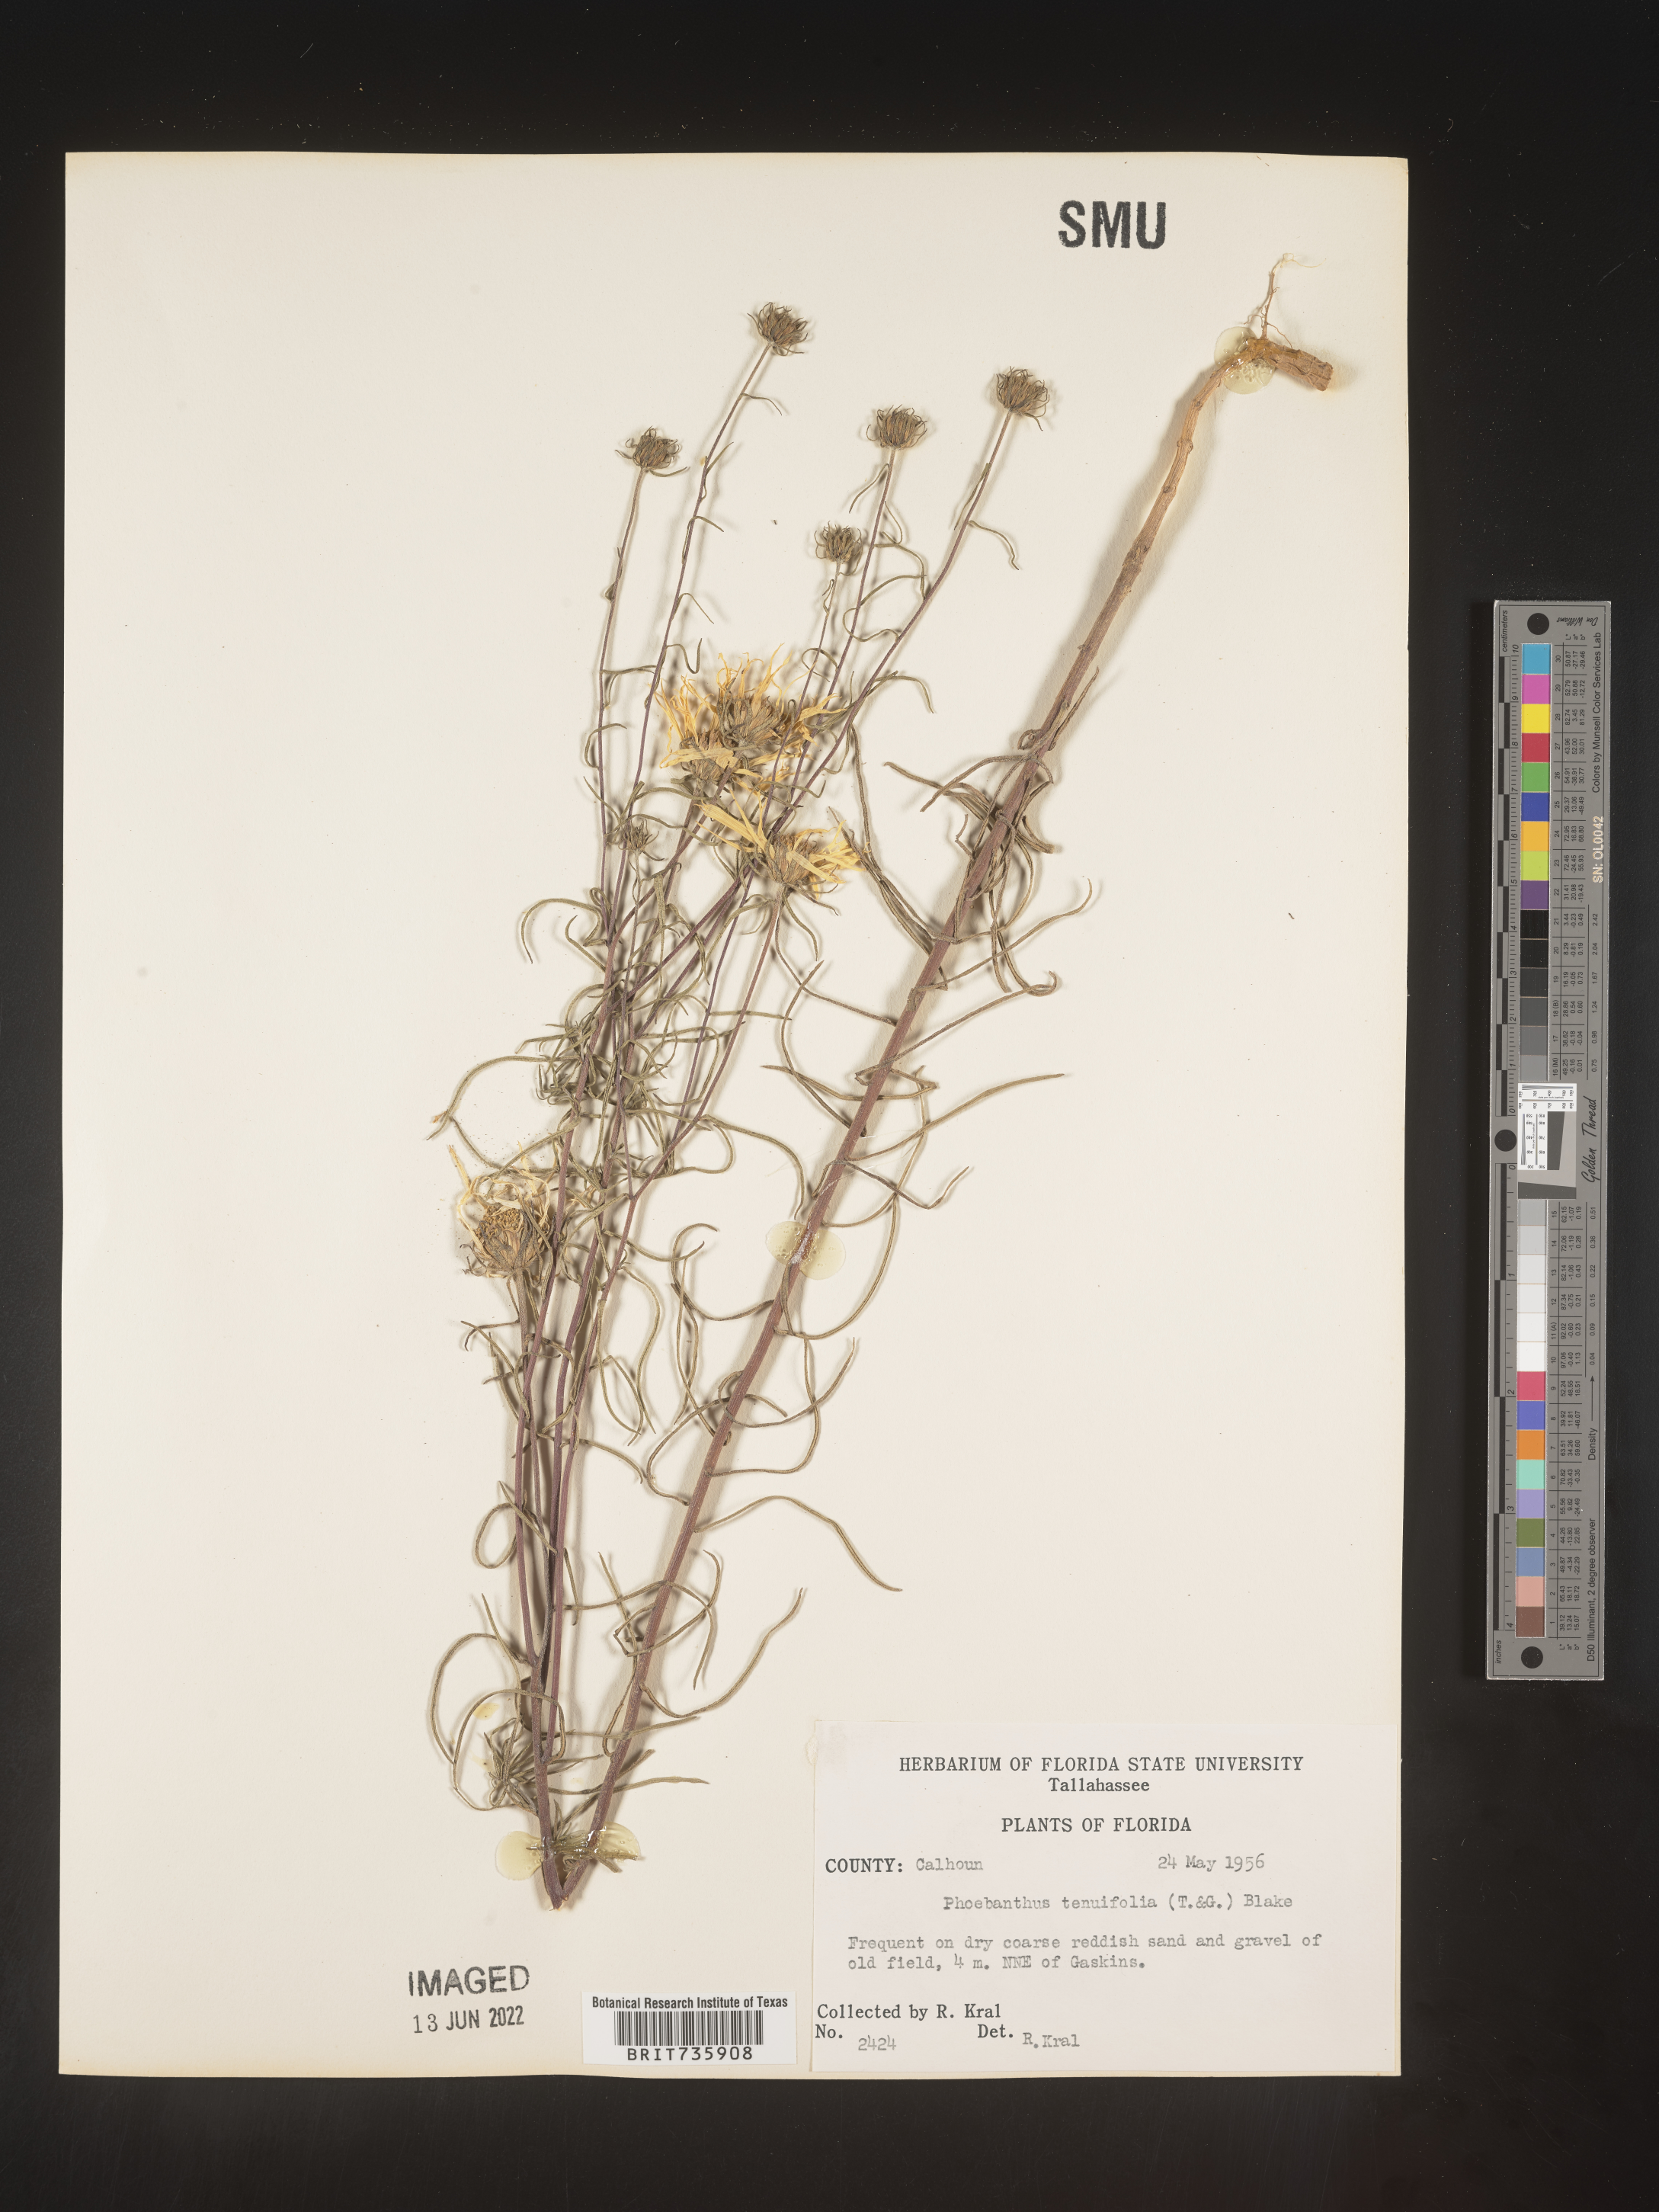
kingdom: Plantae
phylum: Tracheophyta
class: Magnoliopsida
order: Asterales
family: Asteraceae
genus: Phoebanthus
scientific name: Phoebanthus tenuifolia
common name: Pineland false sunflower
